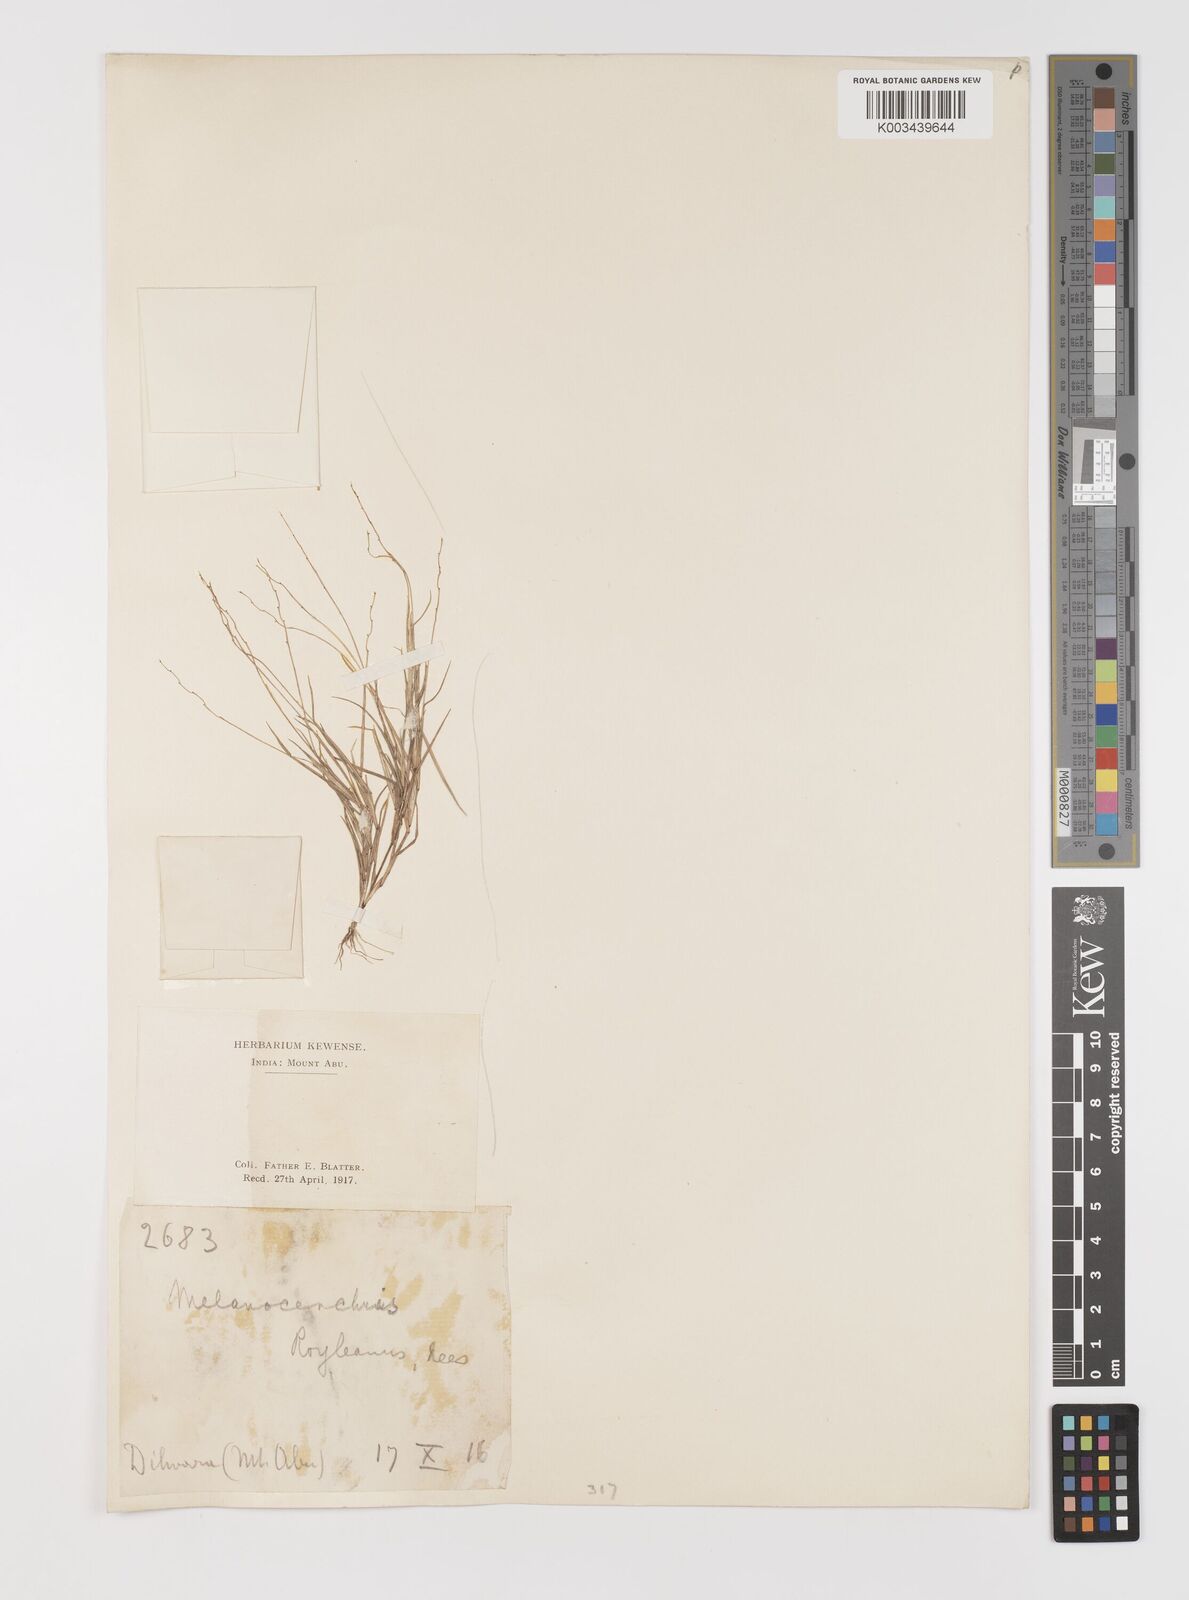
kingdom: Plantae
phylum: Tracheophyta
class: Liliopsida
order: Poales
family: Poaceae
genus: Melanocenchris
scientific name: Melanocenchris jacquemontii
